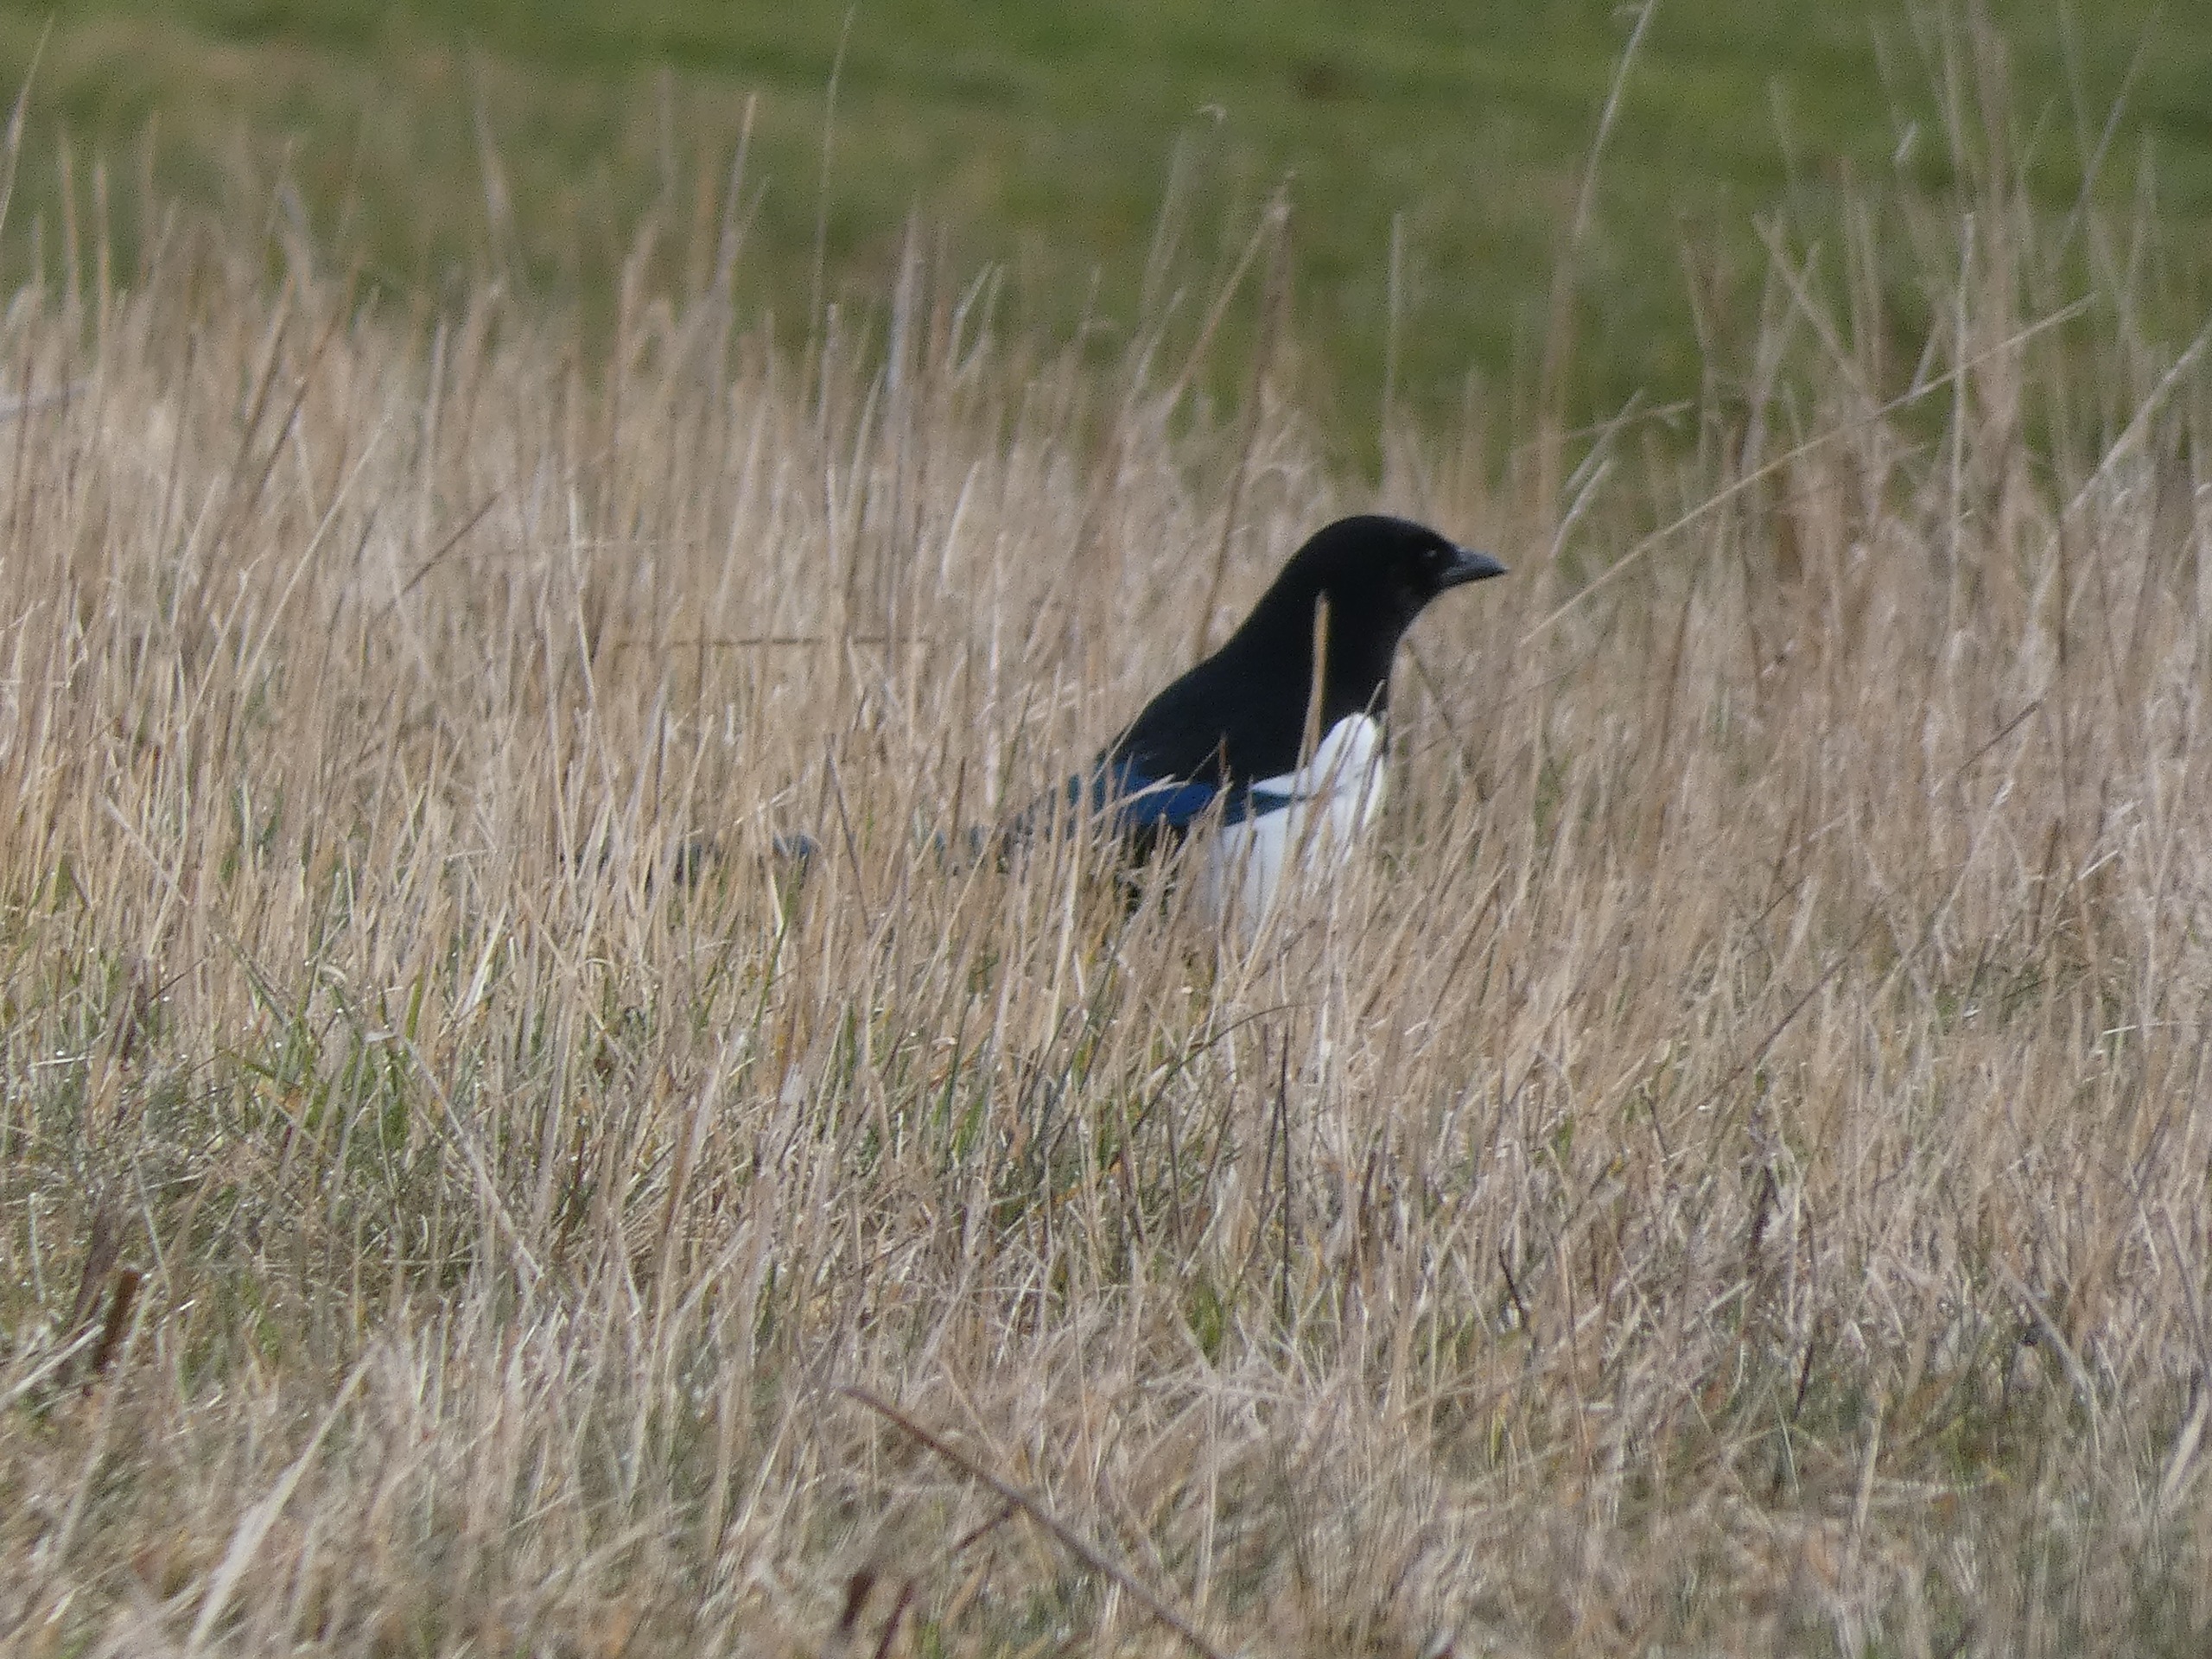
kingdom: Animalia
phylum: Chordata
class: Aves
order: Passeriformes
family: Corvidae
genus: Pica
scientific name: Pica pica
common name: Husskade
